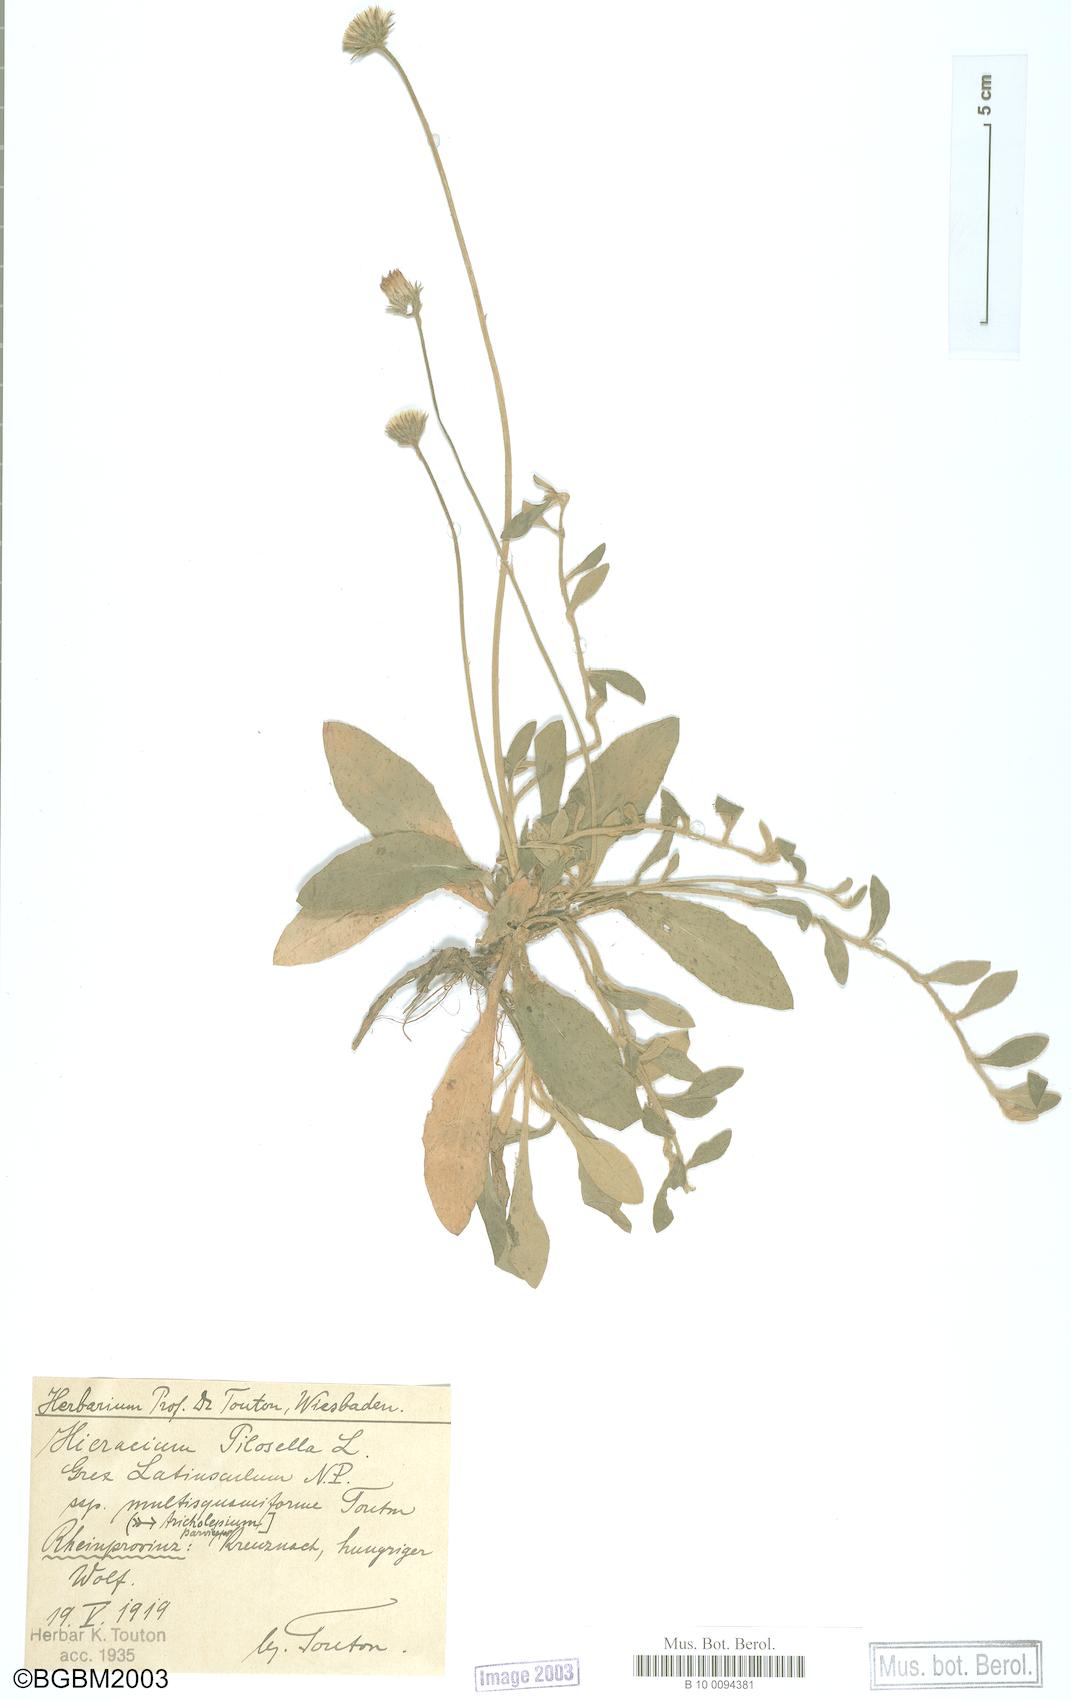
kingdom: Plantae
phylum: Tracheophyta
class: Magnoliopsida
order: Asterales
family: Asteraceae
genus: Pilosella
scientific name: Pilosella officinarum
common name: Mouse-ear hawkweed
